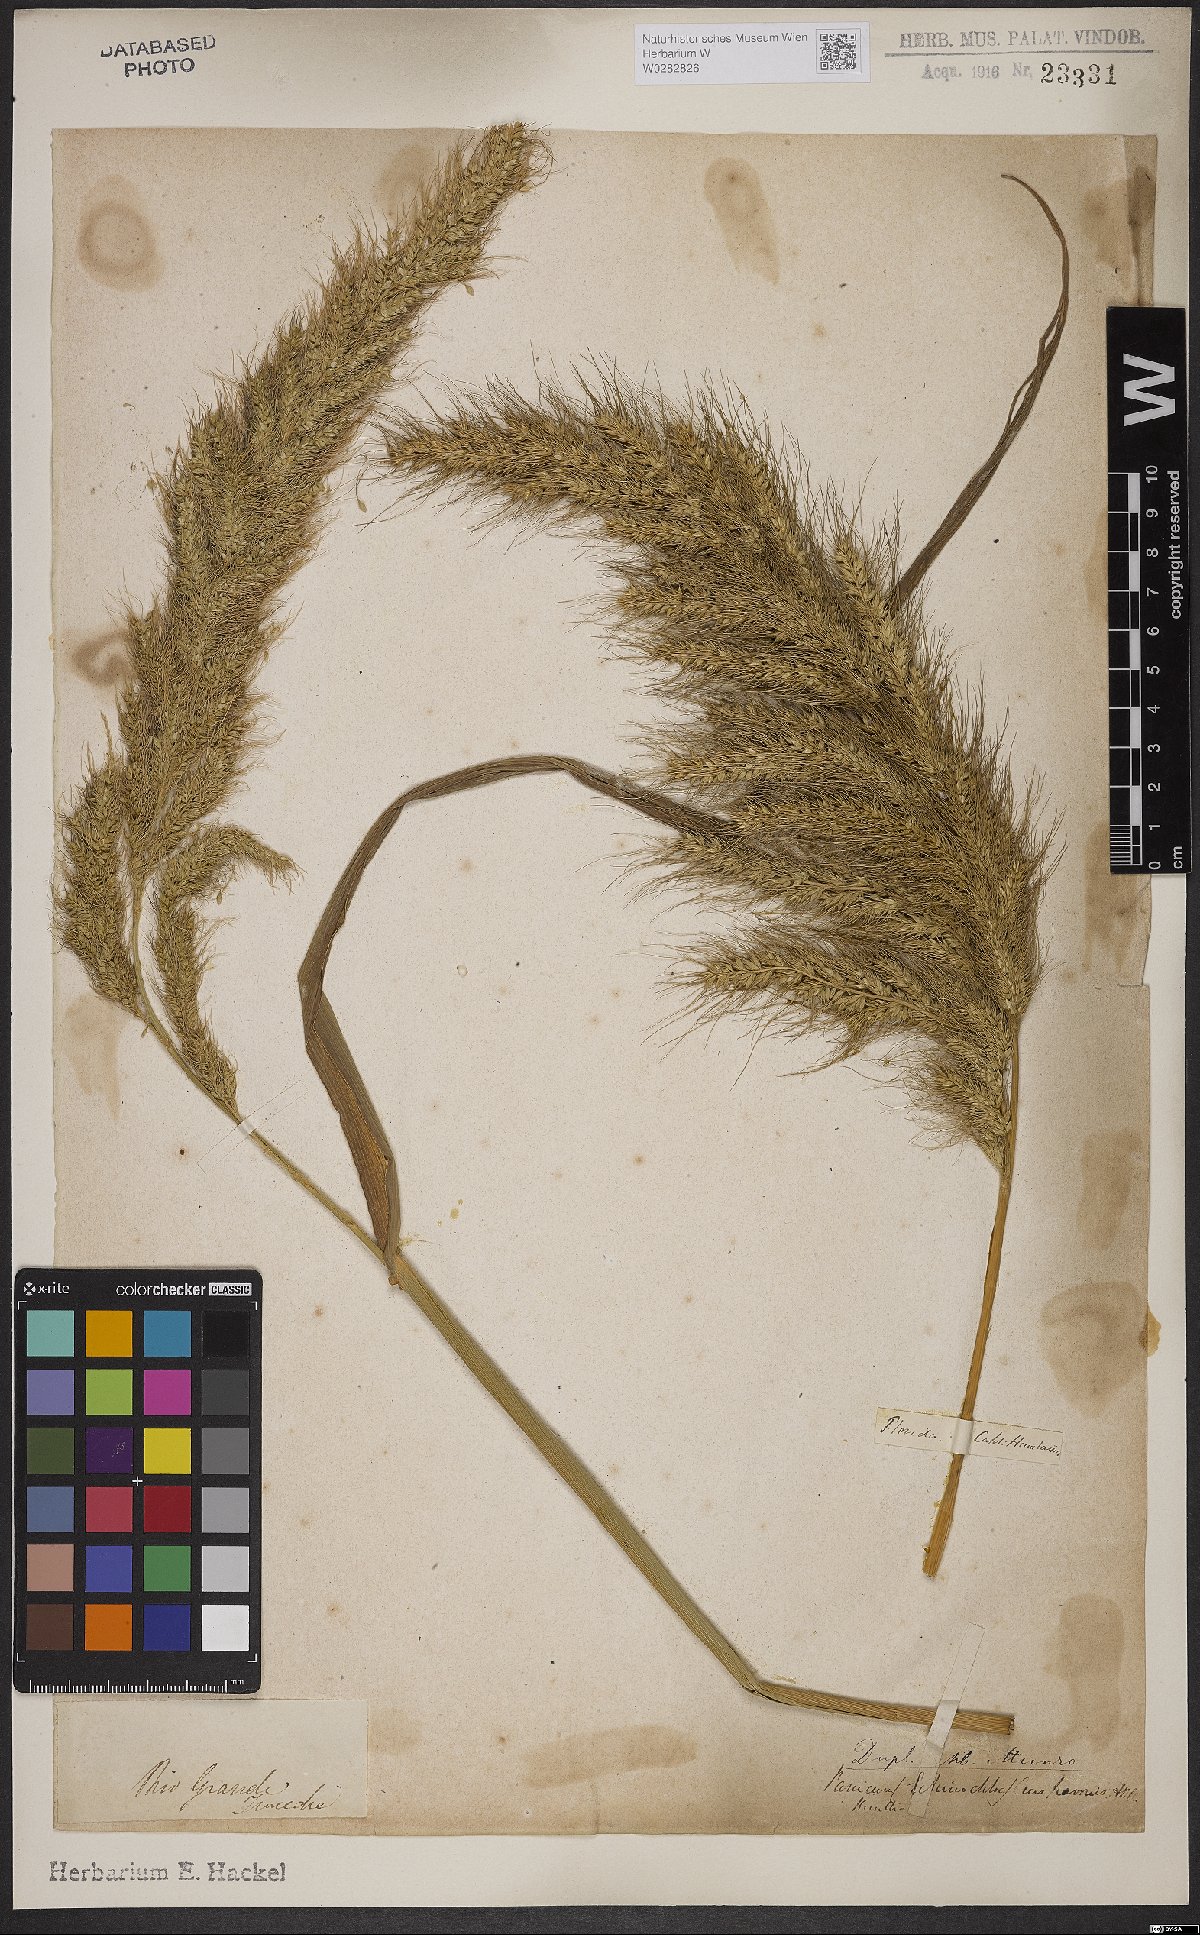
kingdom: Plantae
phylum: Tracheophyta
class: Liliopsida
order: Poales
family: Poaceae
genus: Echinochloa
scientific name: Echinochloa crus-pavonis
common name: Gulf cockspur grass
